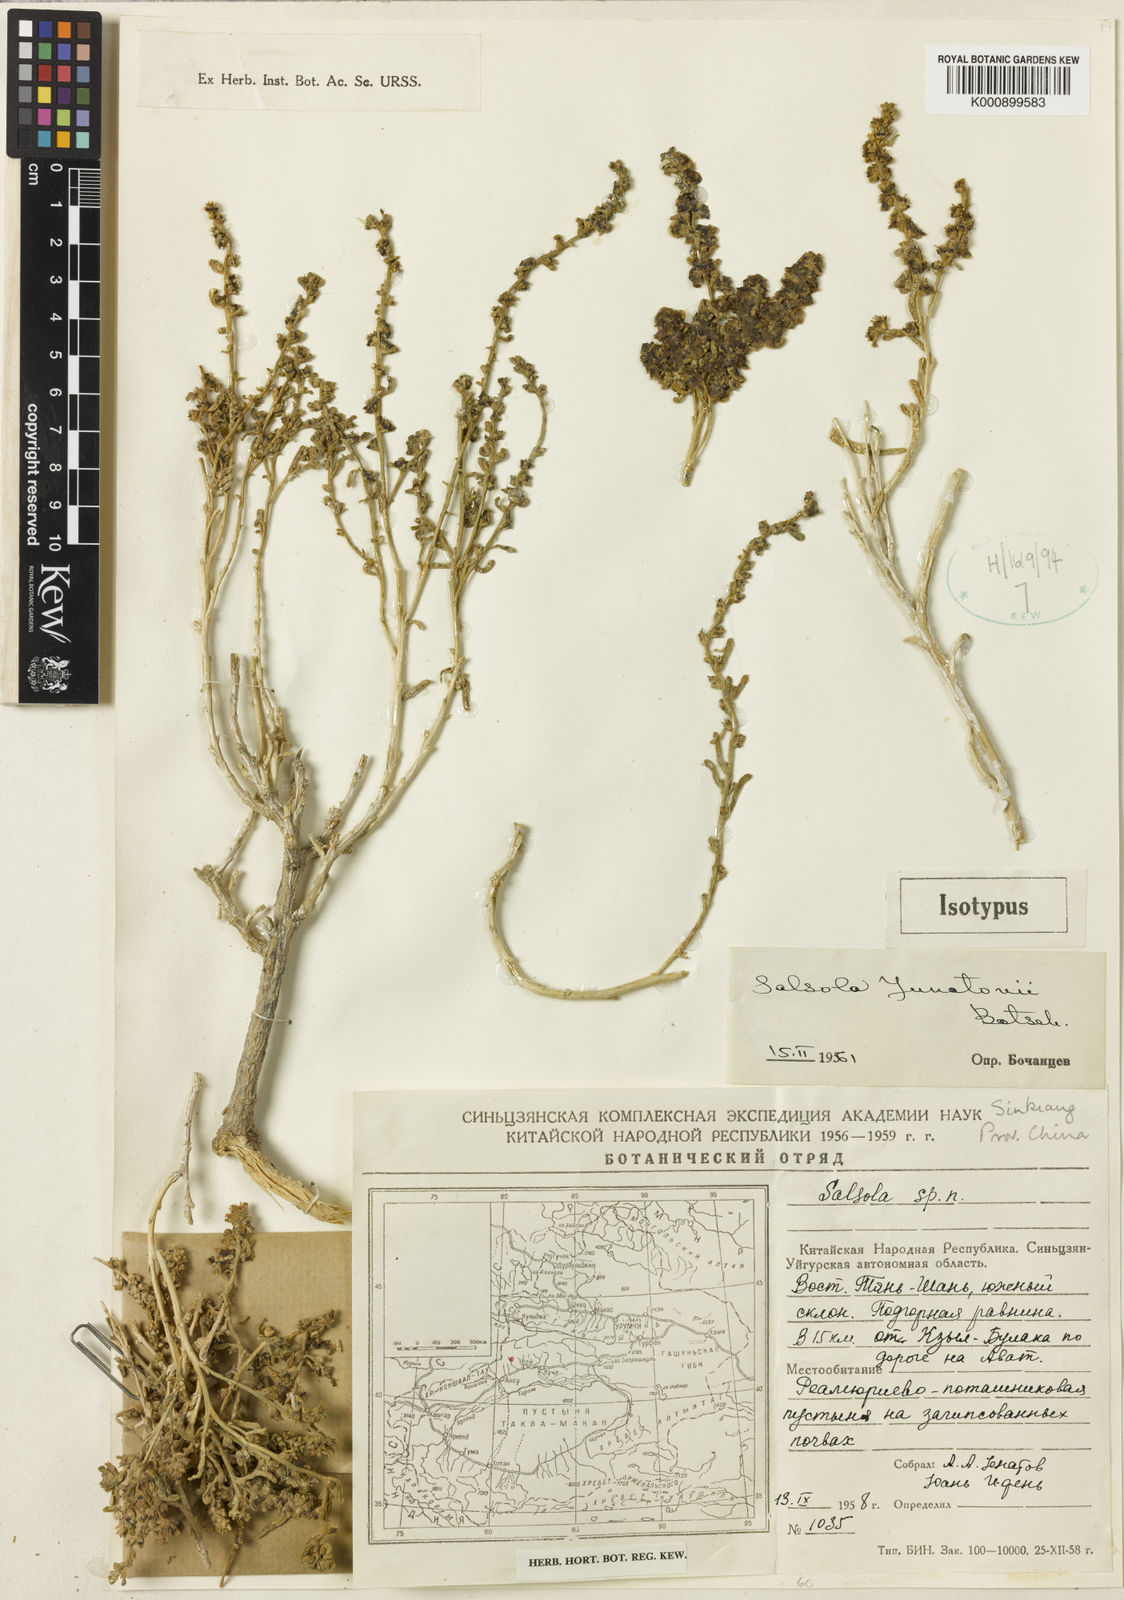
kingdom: Plantae
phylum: Tracheophyta
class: Magnoliopsida
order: Caryophyllales
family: Amaranthaceae
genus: Salsola
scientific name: Salsola junatovii
